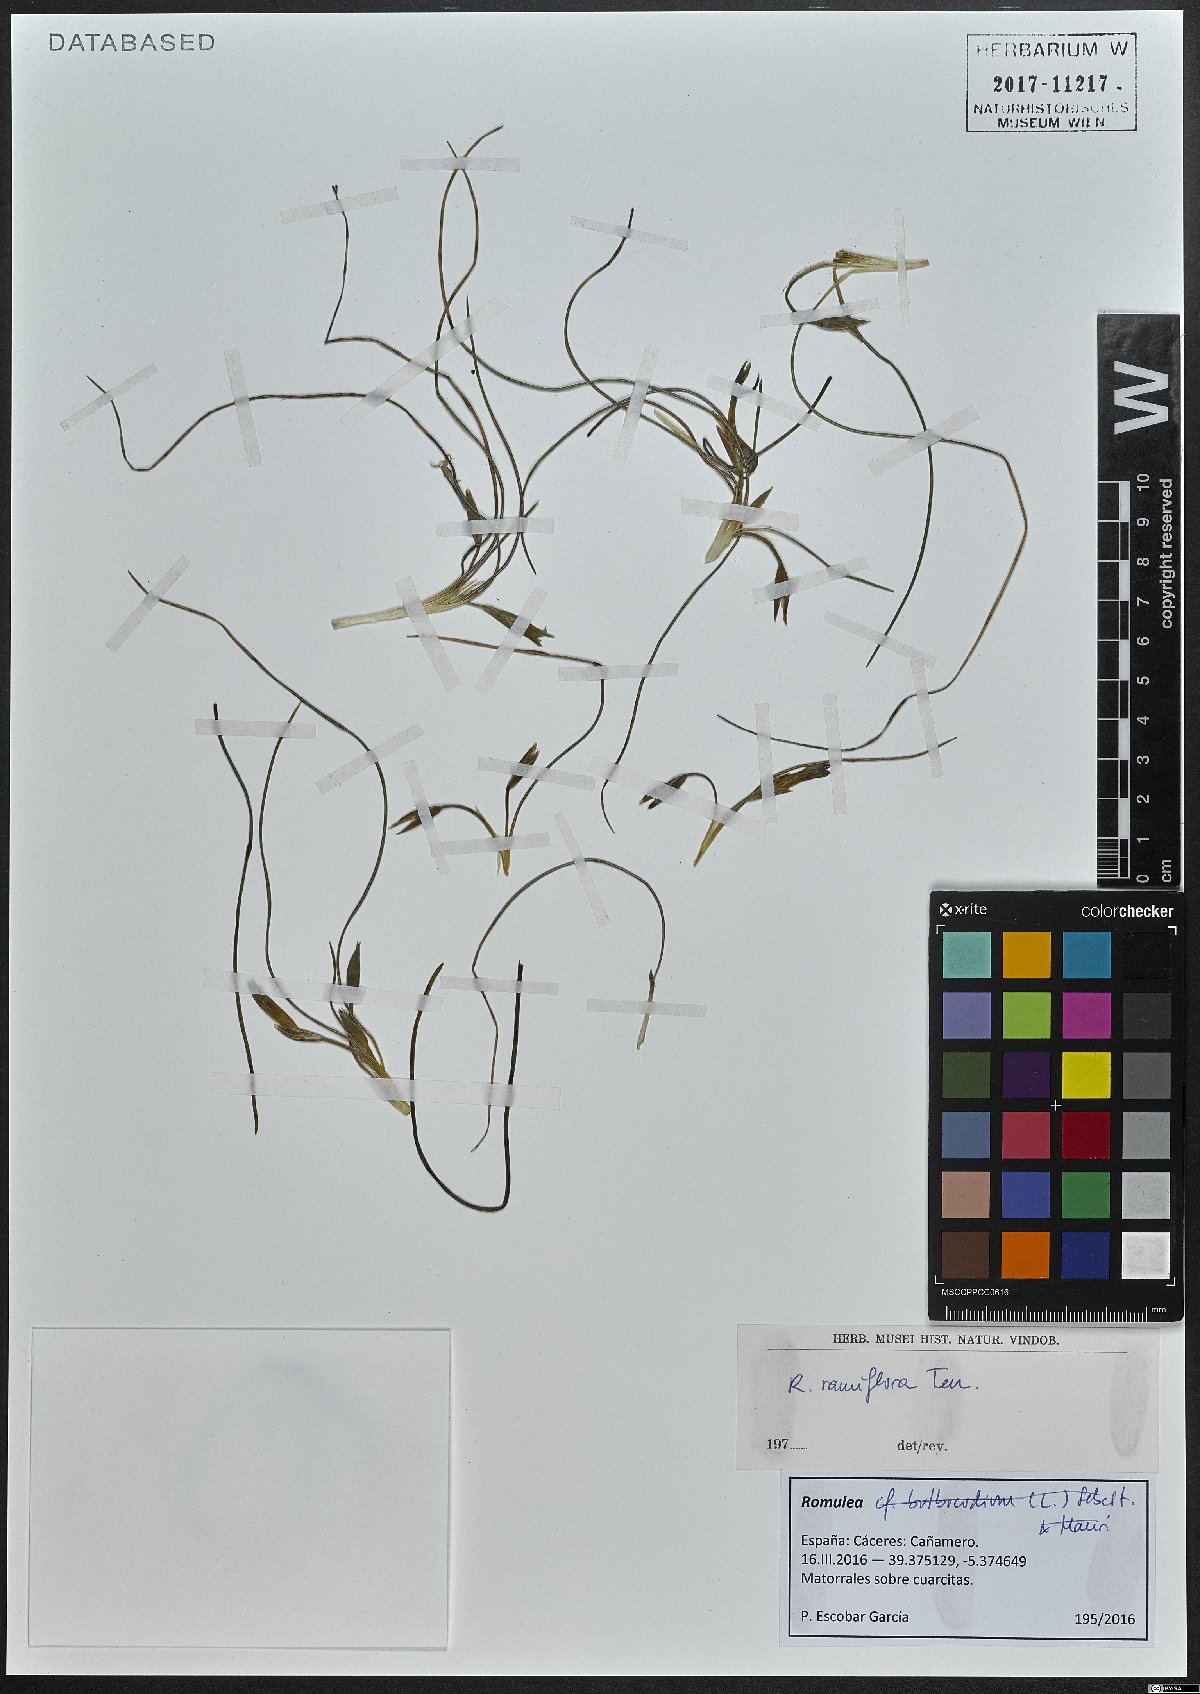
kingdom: Plantae
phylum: Tracheophyta
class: Liliopsida
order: Asparagales
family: Iridaceae
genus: Romulea
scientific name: Romulea ramiflora
